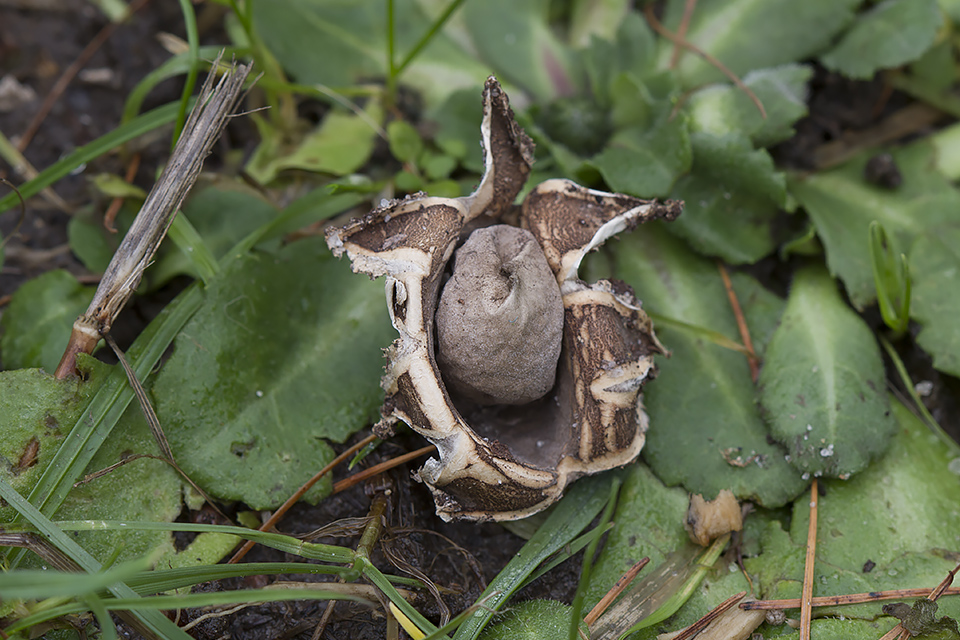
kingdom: Fungi
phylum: Basidiomycota
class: Agaricomycetes
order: Geastrales
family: Geastraceae
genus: Geastrum
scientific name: Geastrum fimbriatum
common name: frynset stjernebold
